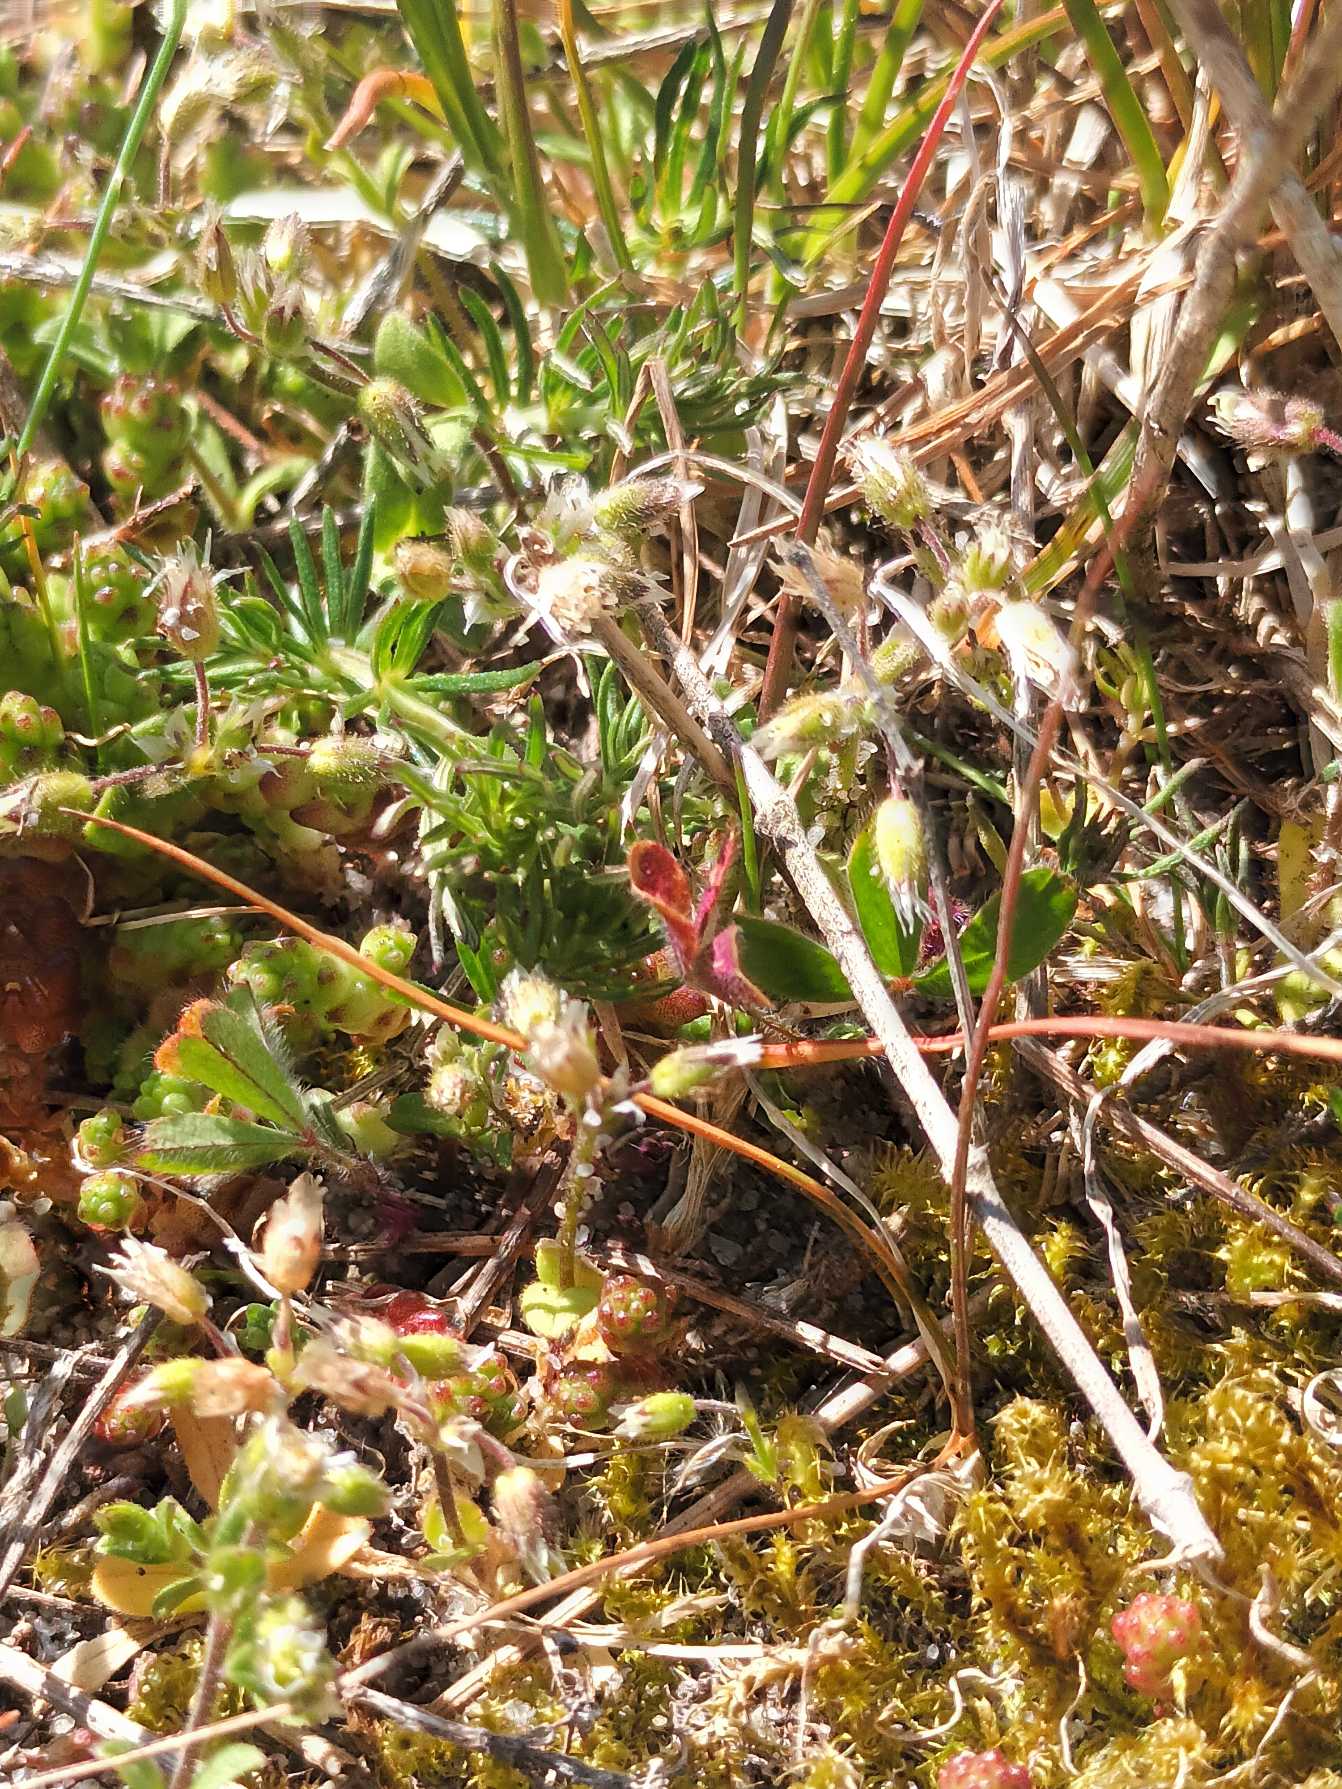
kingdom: Plantae
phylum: Tracheophyta
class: Magnoliopsida
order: Caryophyllales
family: Caryophyllaceae
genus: Cerastium
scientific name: Cerastium semidecandrum
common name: Femhannet hønsetarm
